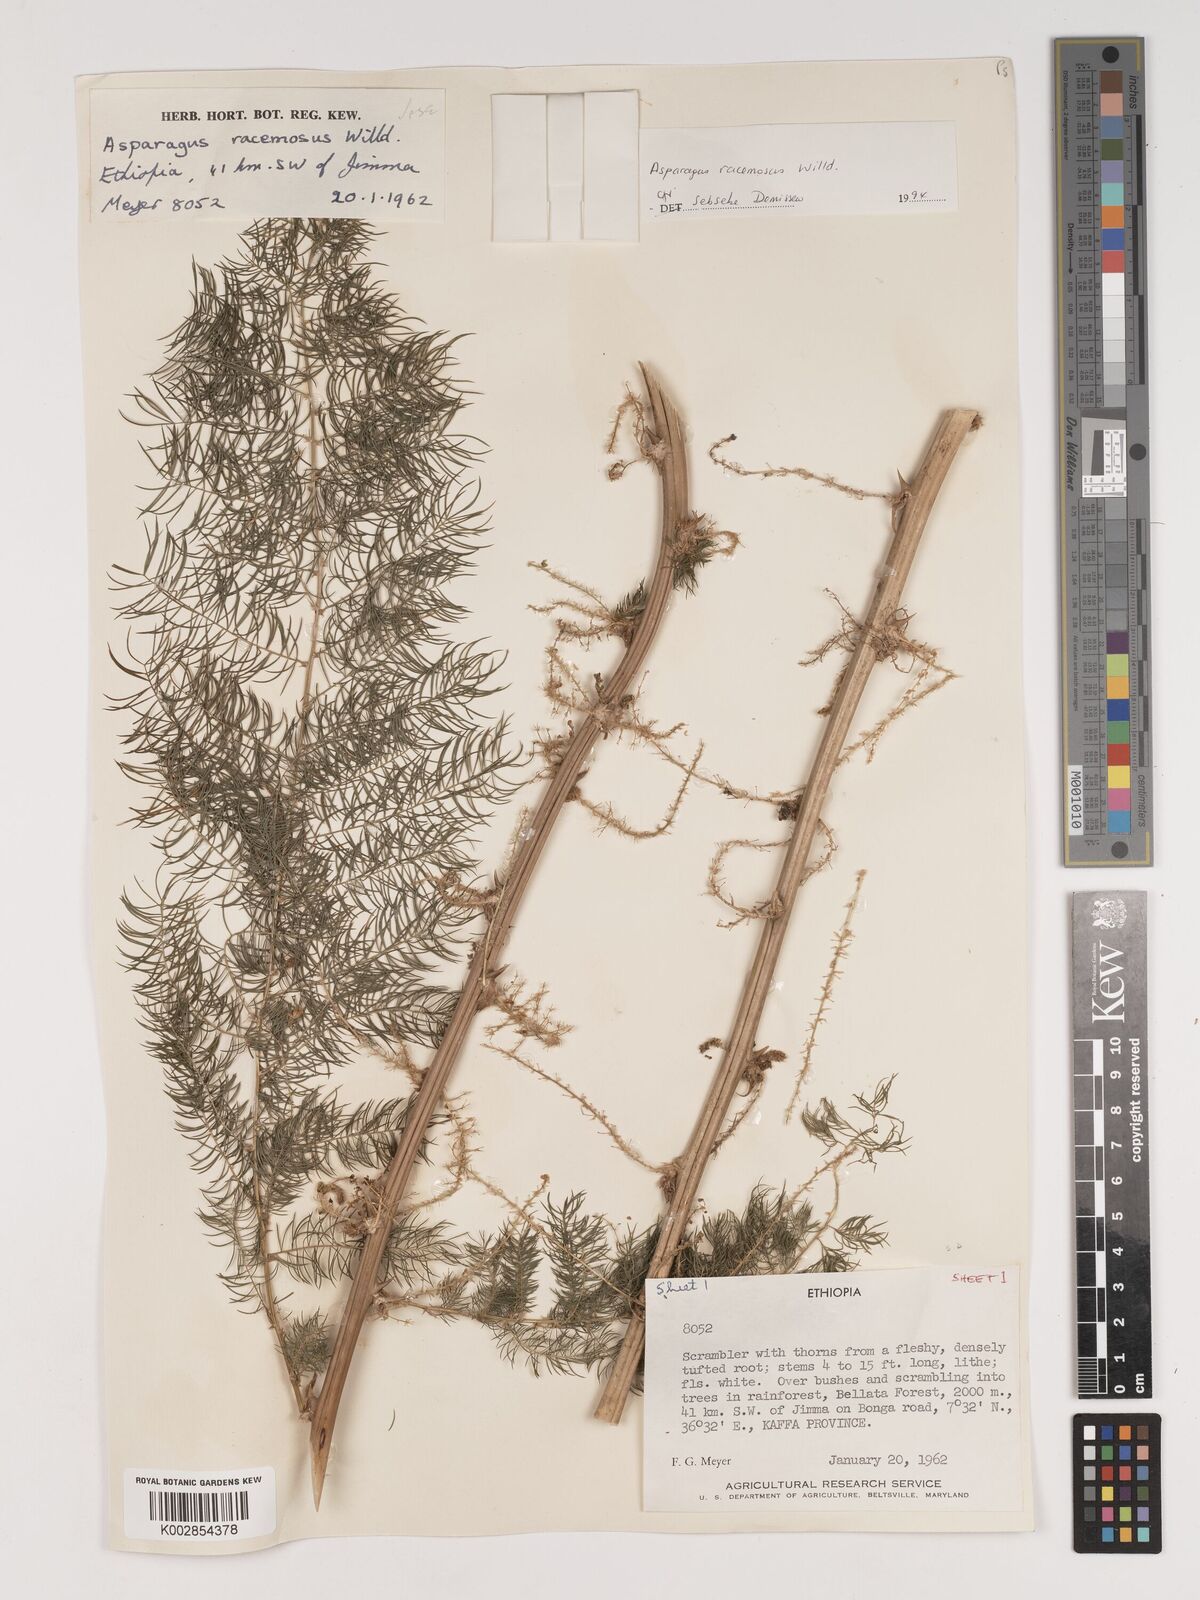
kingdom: Plantae
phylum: Tracheophyta
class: Liliopsida
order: Asparagales
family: Asparagaceae
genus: Asparagus
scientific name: Asparagus racemosus
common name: Asparagus-fern
